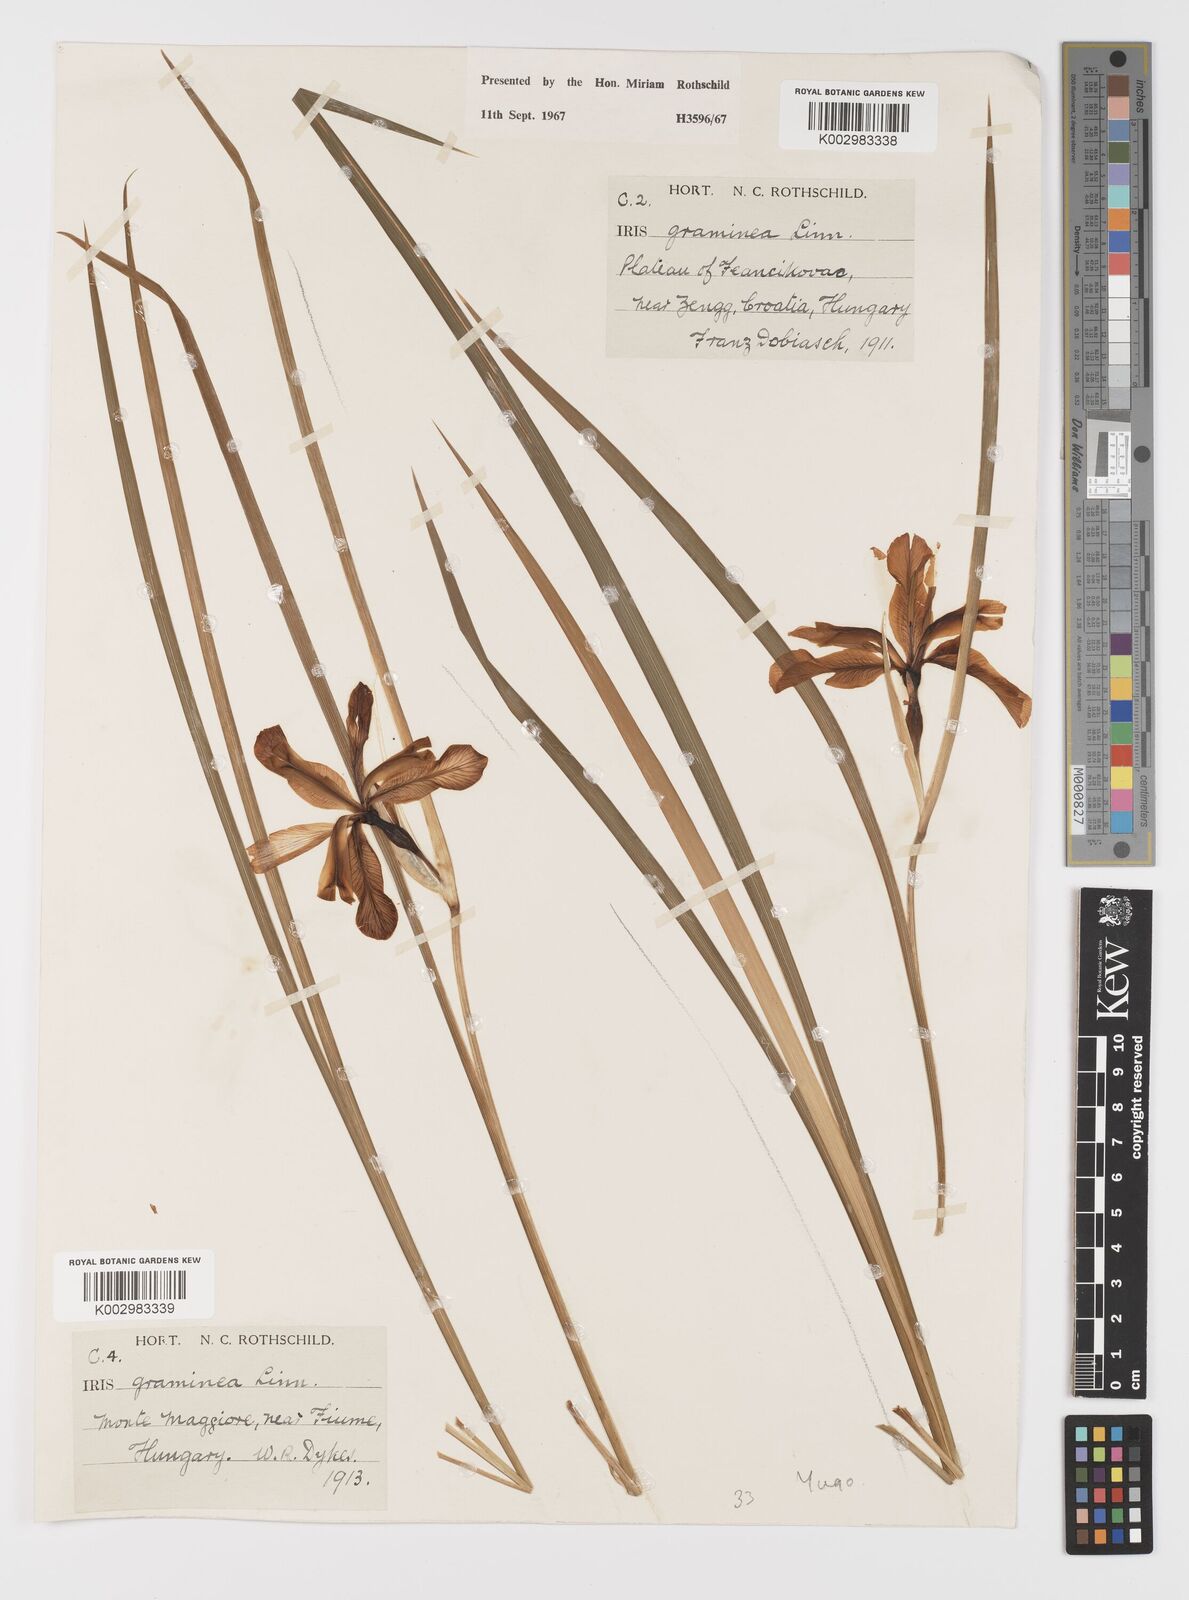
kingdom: Plantae
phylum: Tracheophyta
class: Liliopsida
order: Asparagales
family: Iridaceae
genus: Iris
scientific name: Iris graminea
